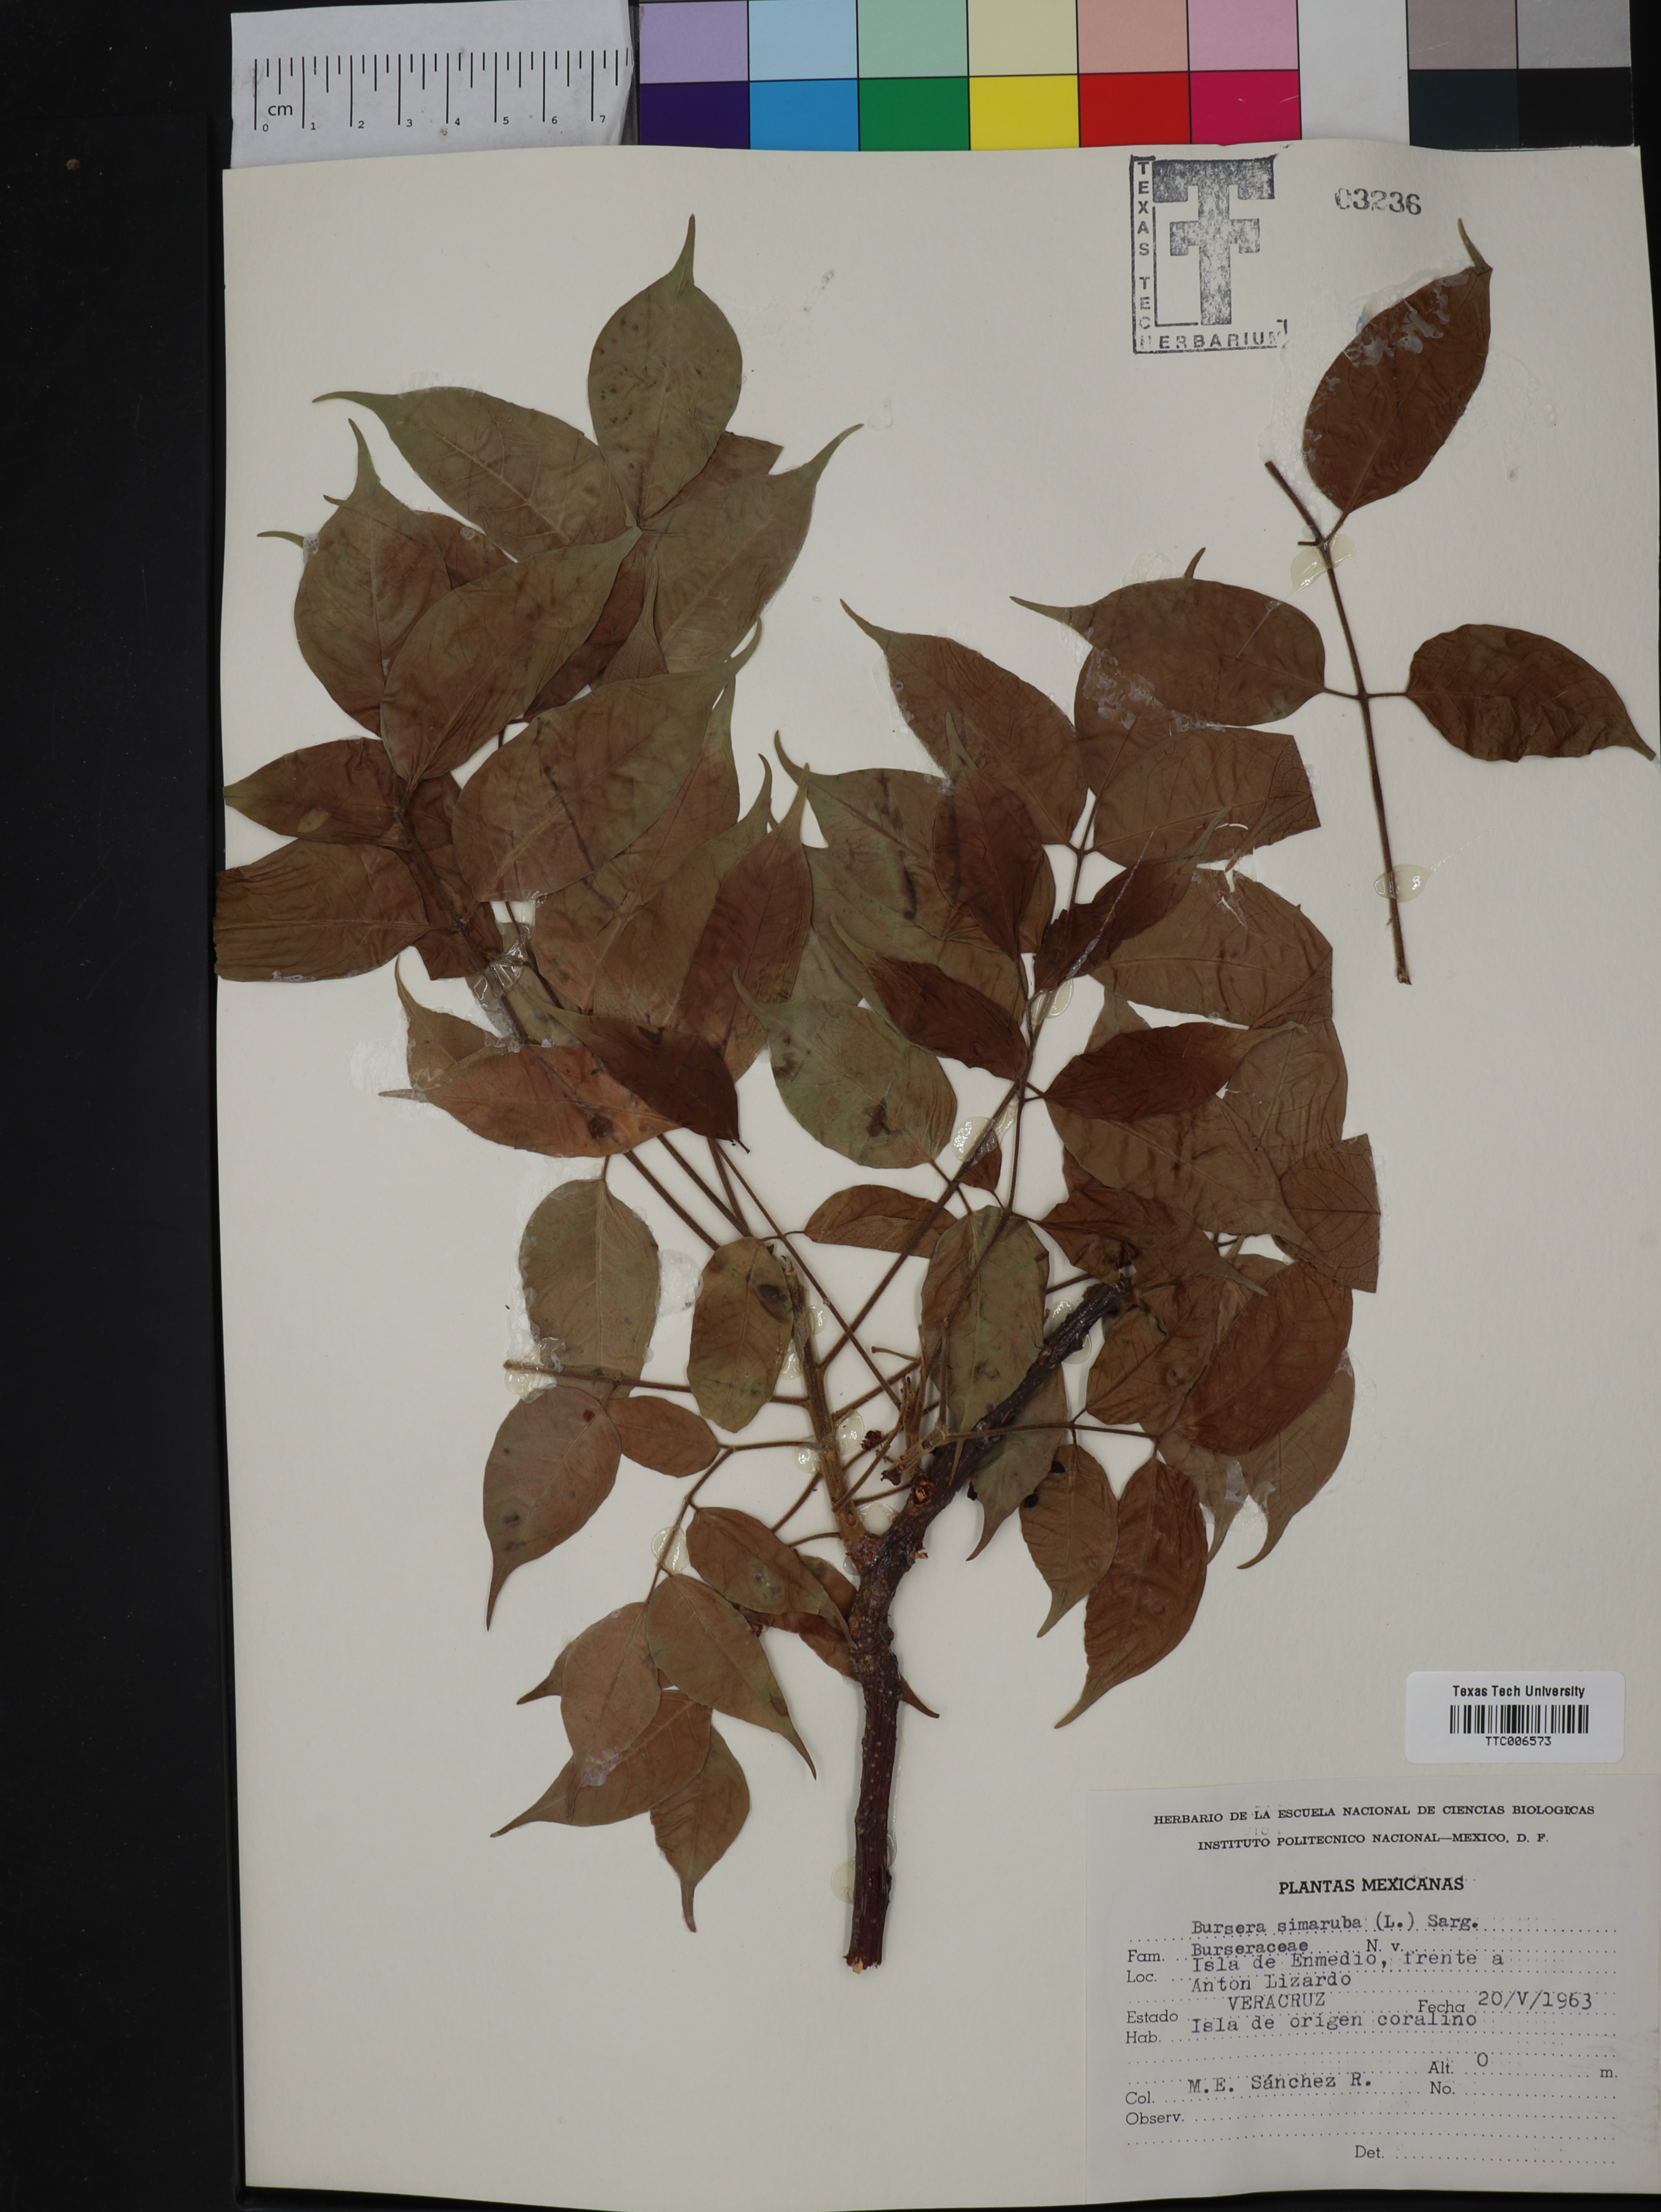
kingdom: Plantae
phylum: Tracheophyta
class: Magnoliopsida
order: Sapindales
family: Burseraceae
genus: Bursera
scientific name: Bursera simaruba
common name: Turpentine tree
